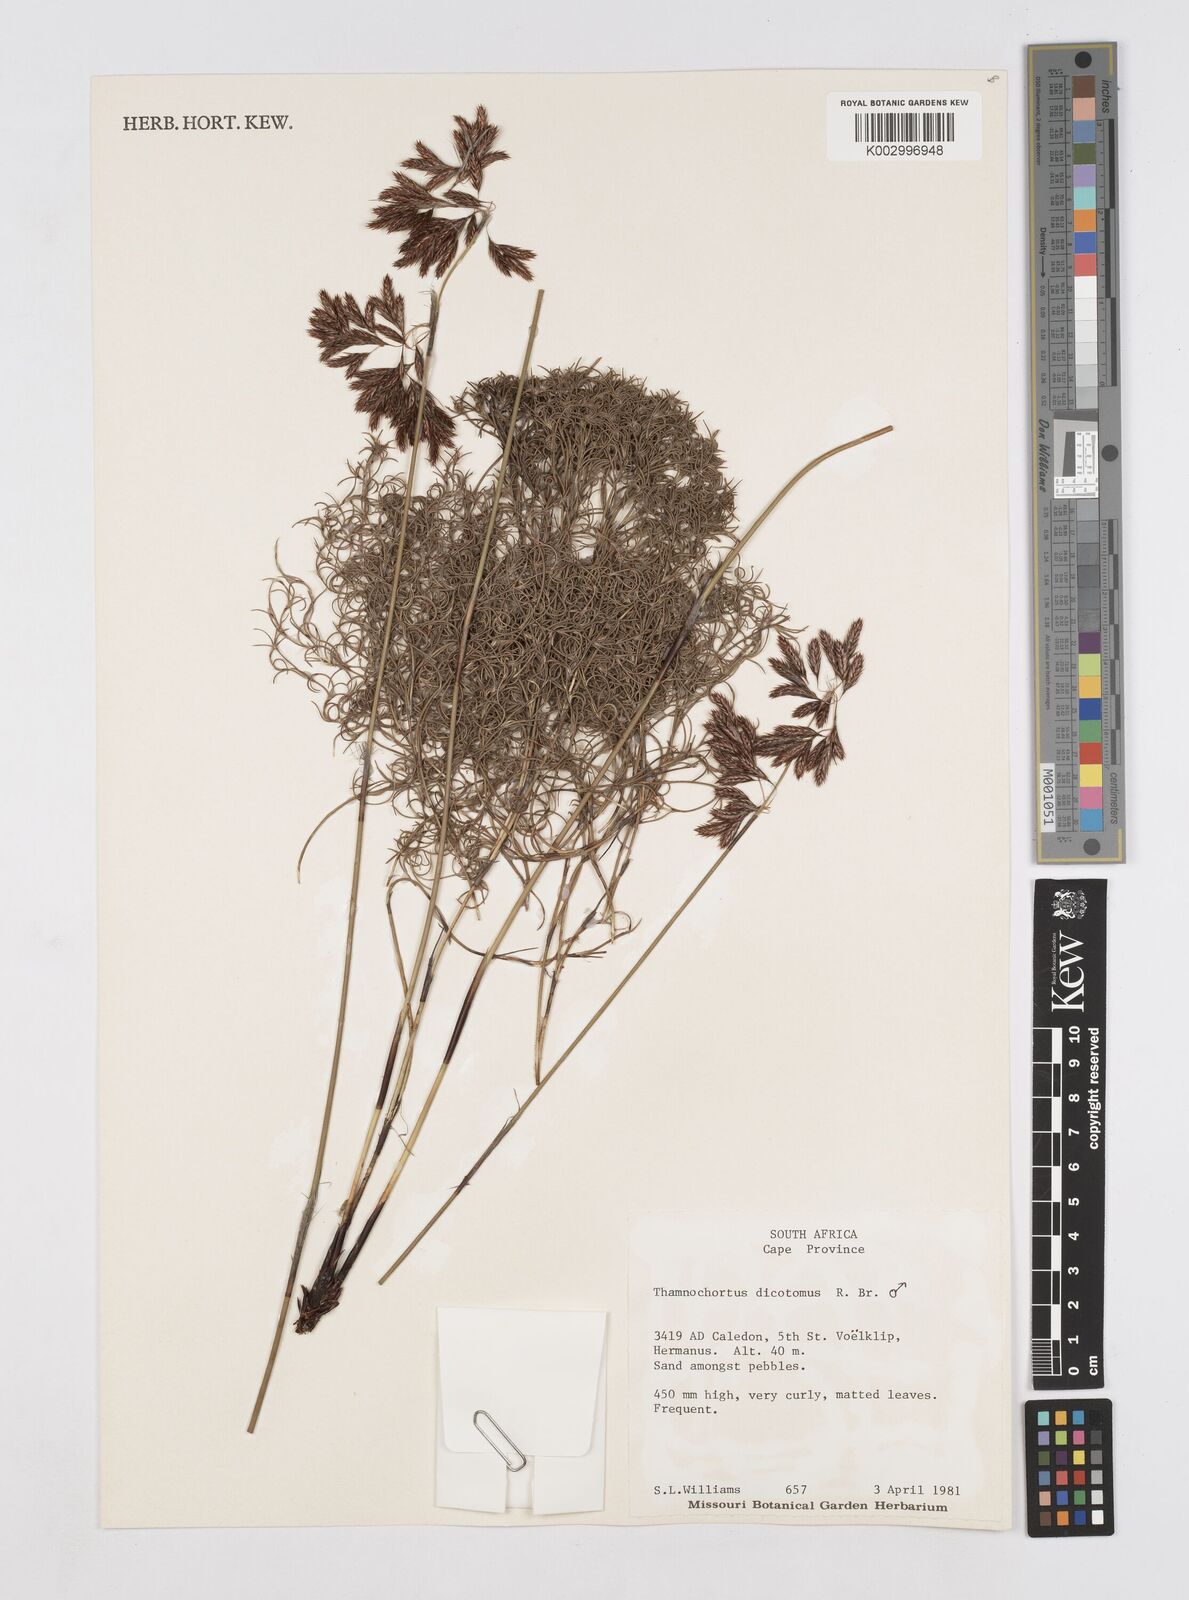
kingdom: Plantae
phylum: Tracheophyta
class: Liliopsida
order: Poales
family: Restionaceae
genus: Thamnochortus
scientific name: Thamnochortus lucens
